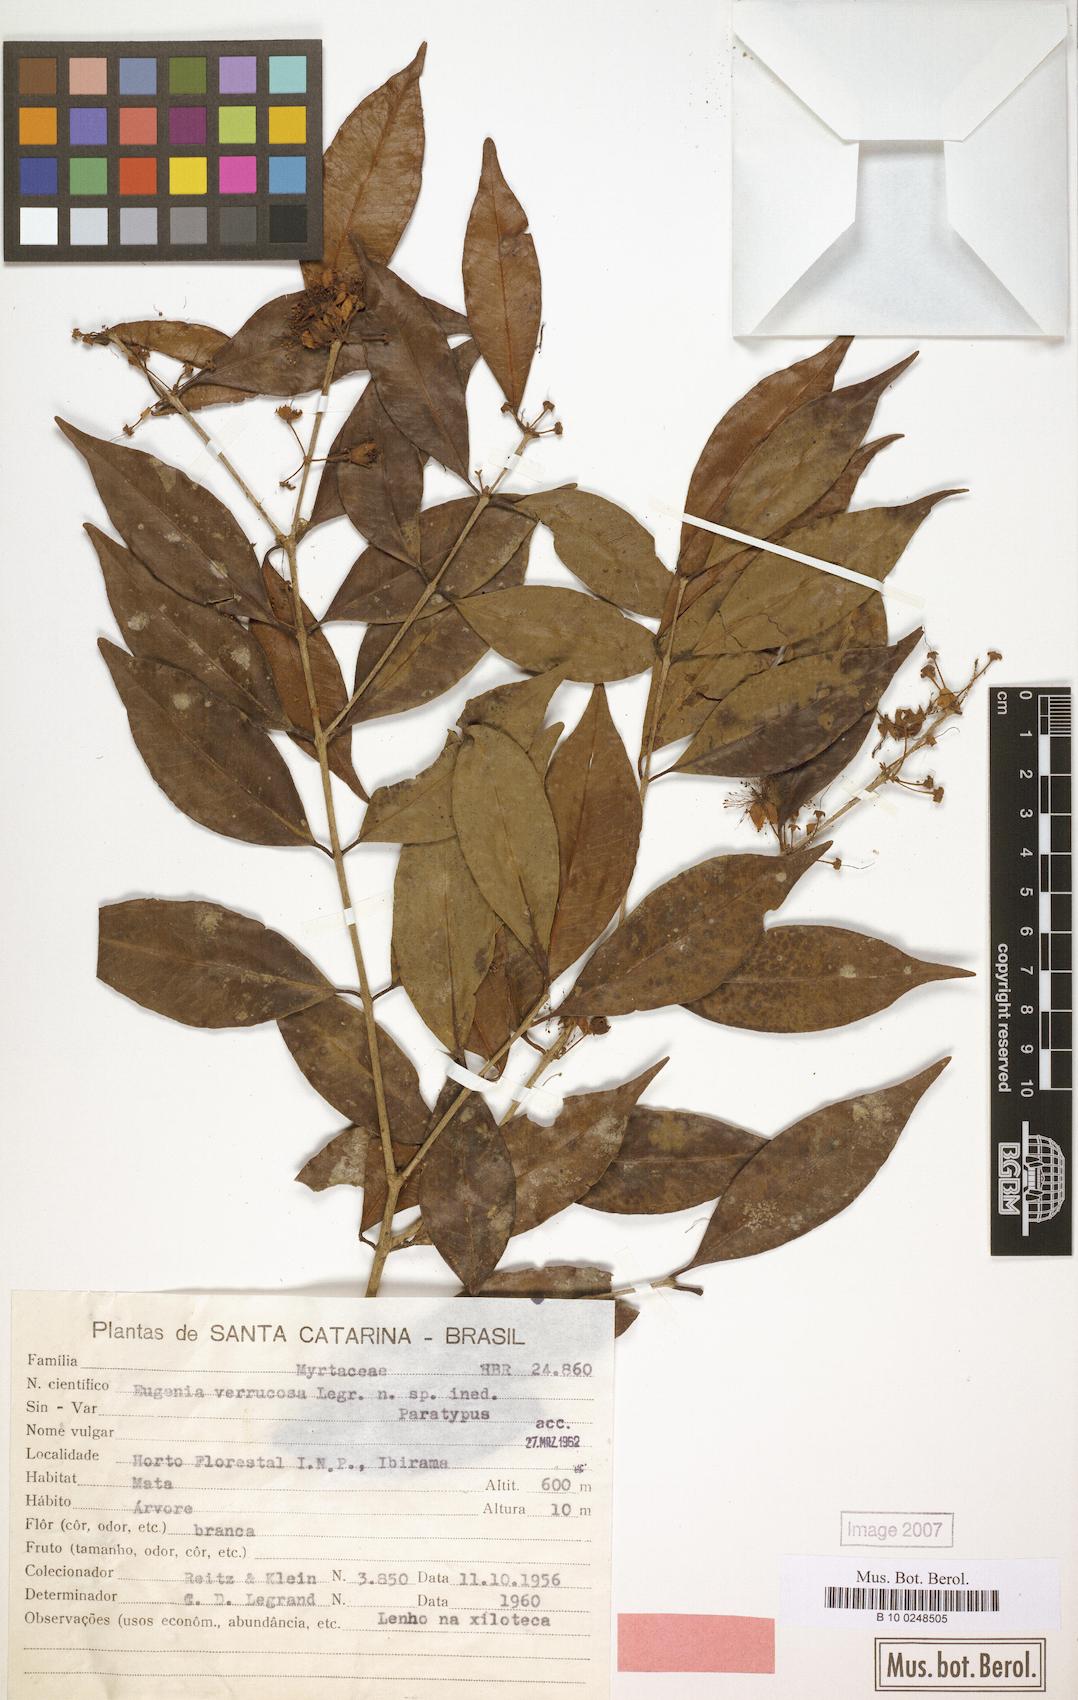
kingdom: Plantae
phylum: Tracheophyta
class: Magnoliopsida
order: Myrtales
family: Myrtaceae
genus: Eugenia
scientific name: Eugenia neoverrucosa
